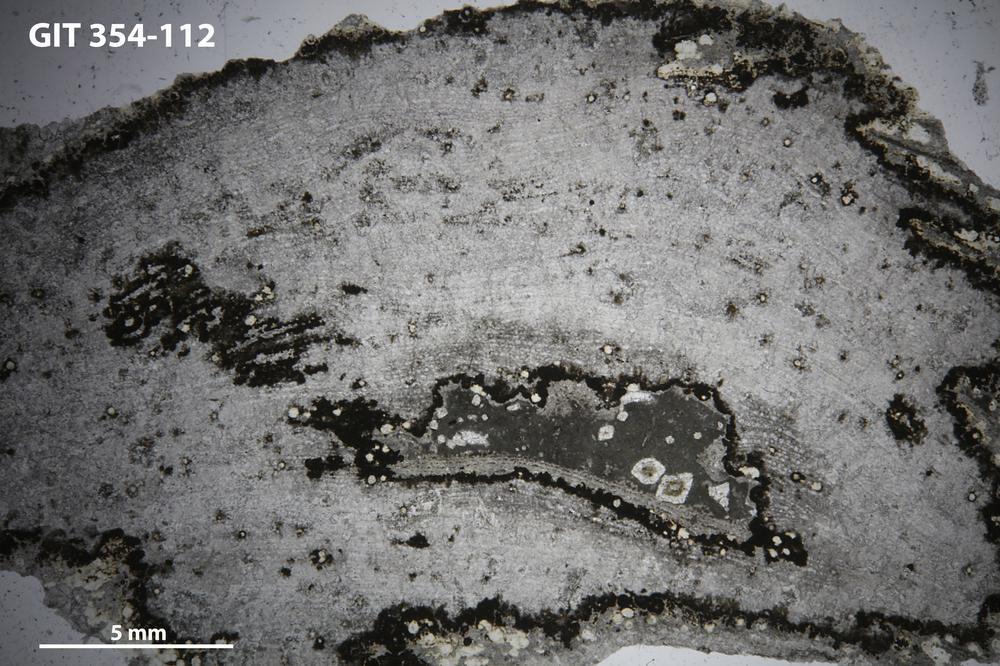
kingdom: Animalia
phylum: Porifera
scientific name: Porifera
